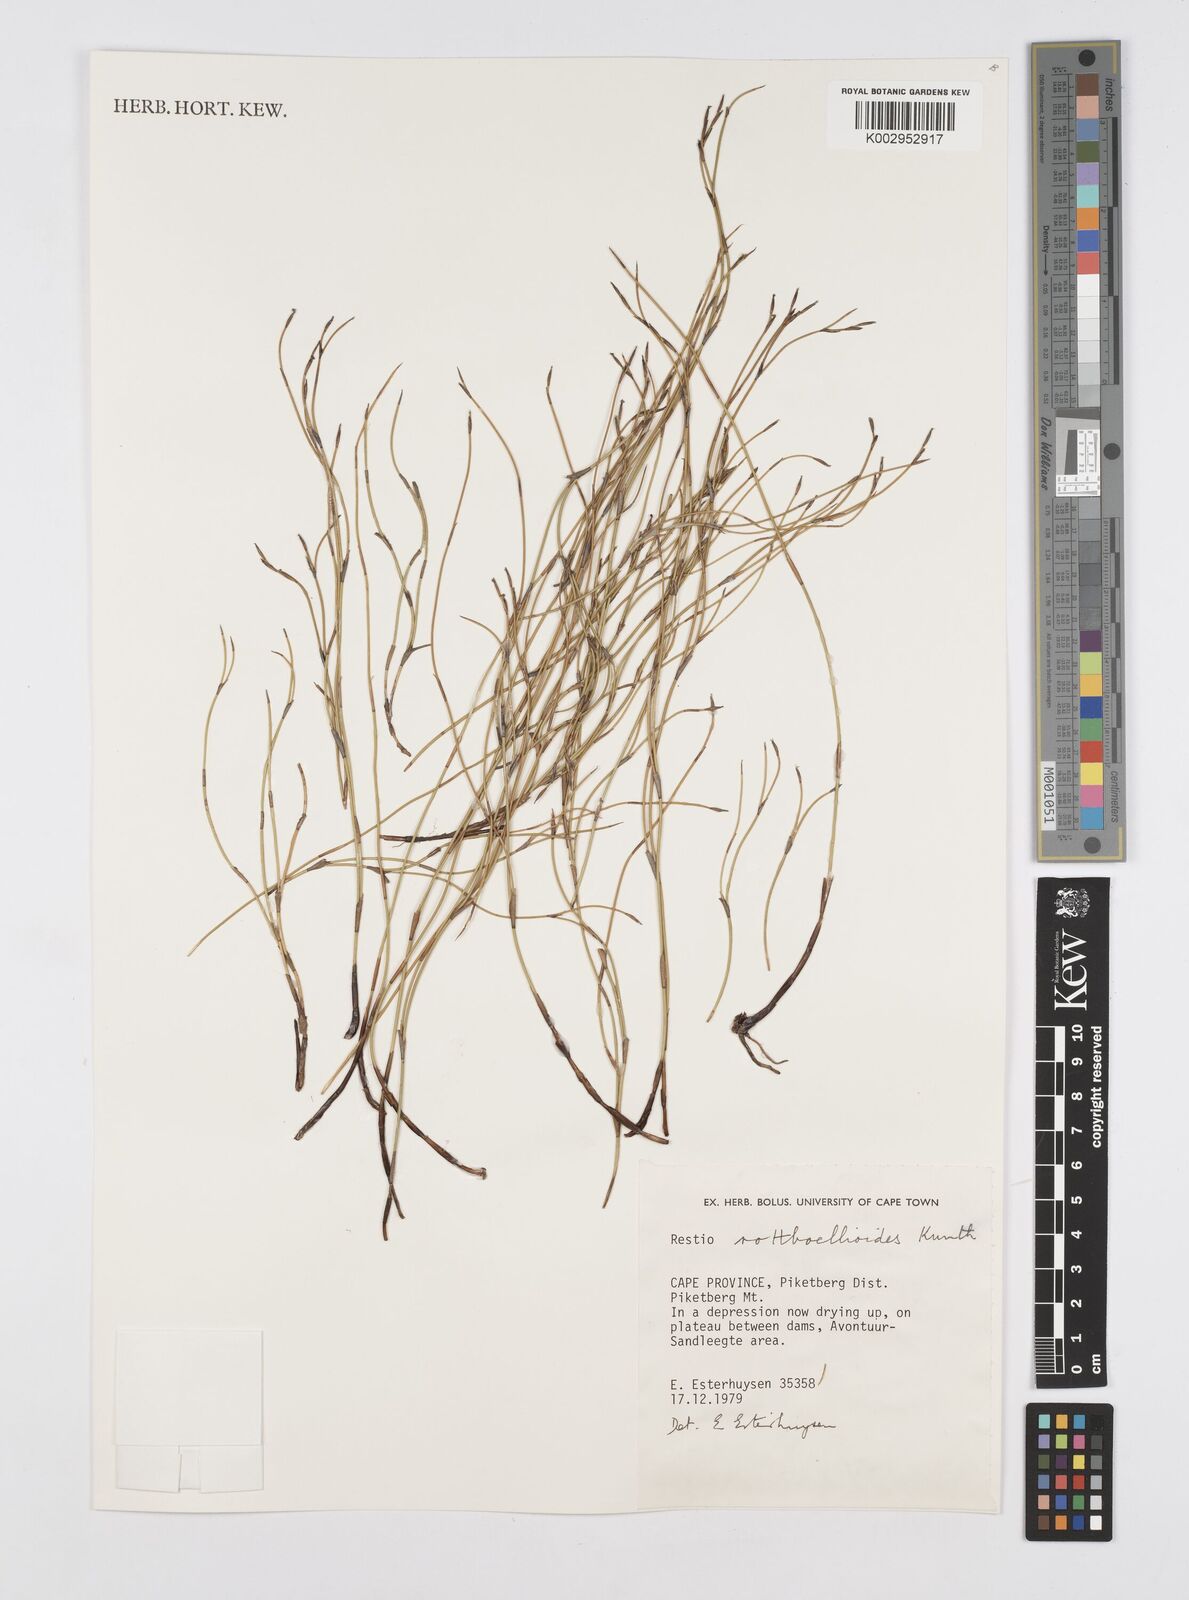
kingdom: Plantae
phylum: Tracheophyta
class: Liliopsida
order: Poales
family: Restionaceae
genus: Restio
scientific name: Restio rottboellioides
